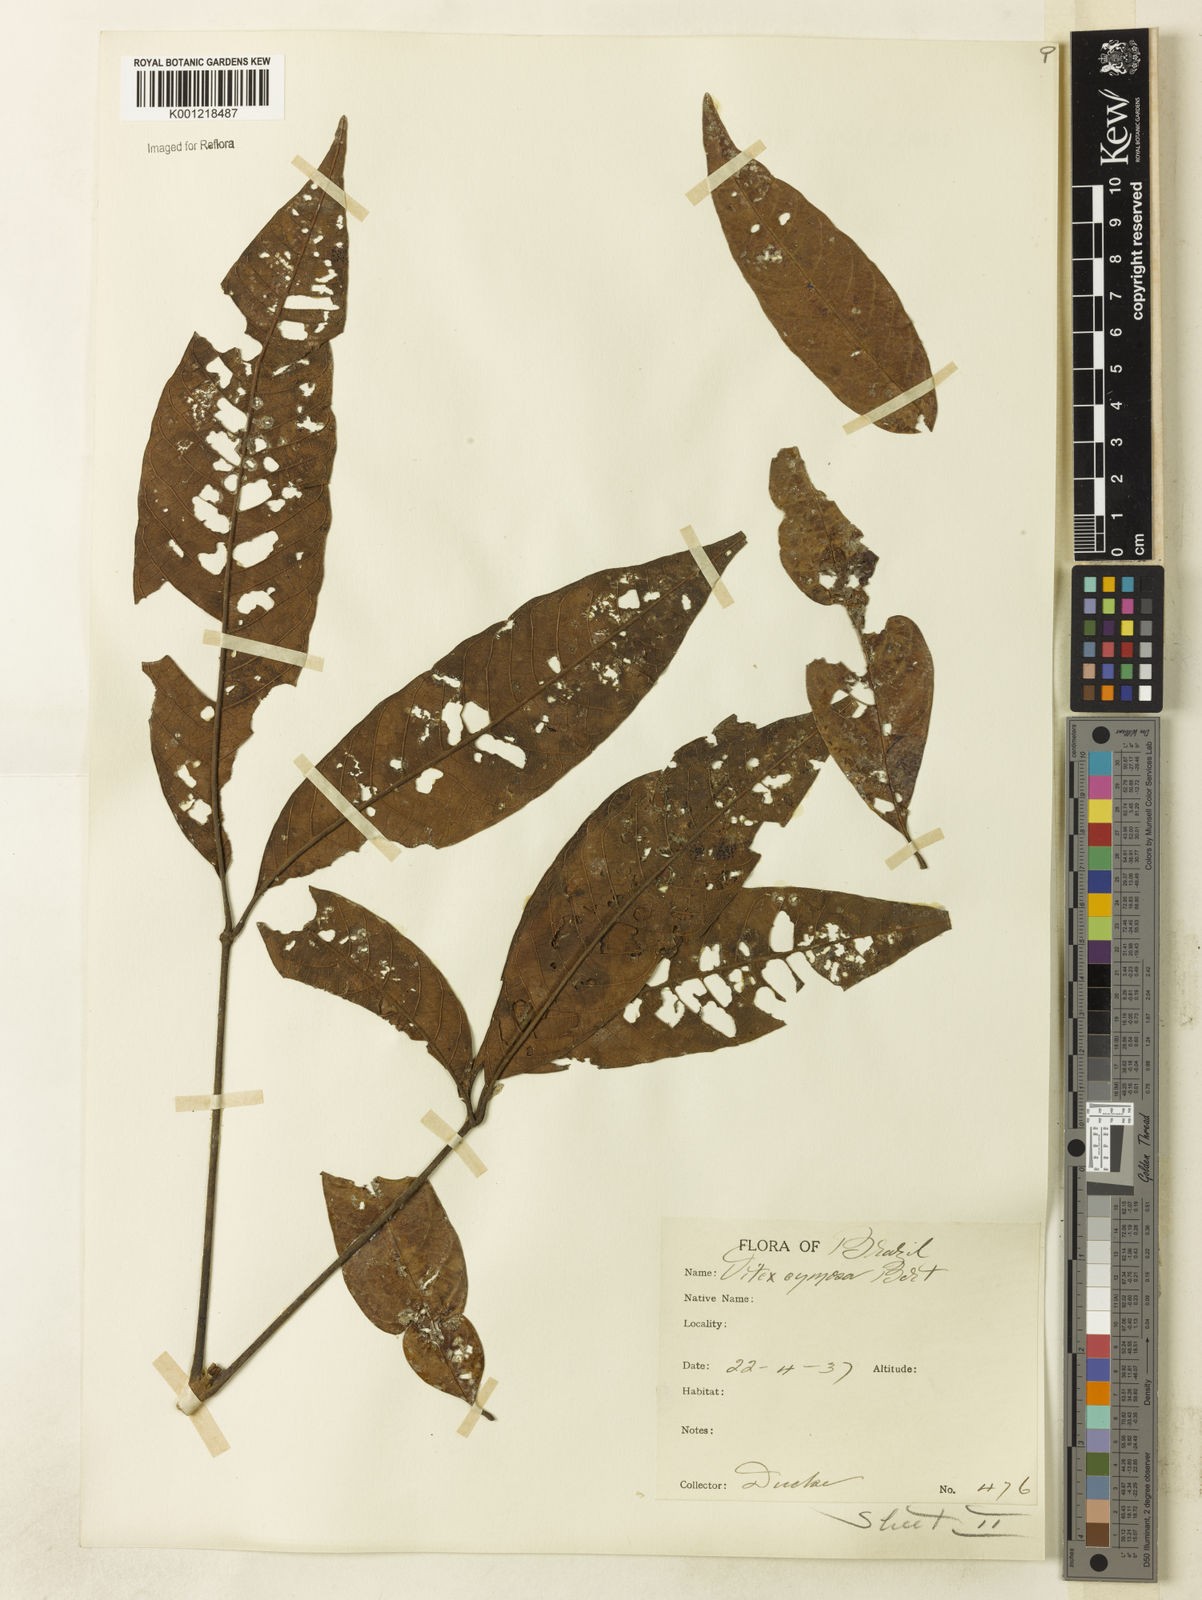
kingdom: Plantae
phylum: Tracheophyta
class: Magnoliopsida
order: Lamiales
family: Lamiaceae
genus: Vitex
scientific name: Vitex cymosa
